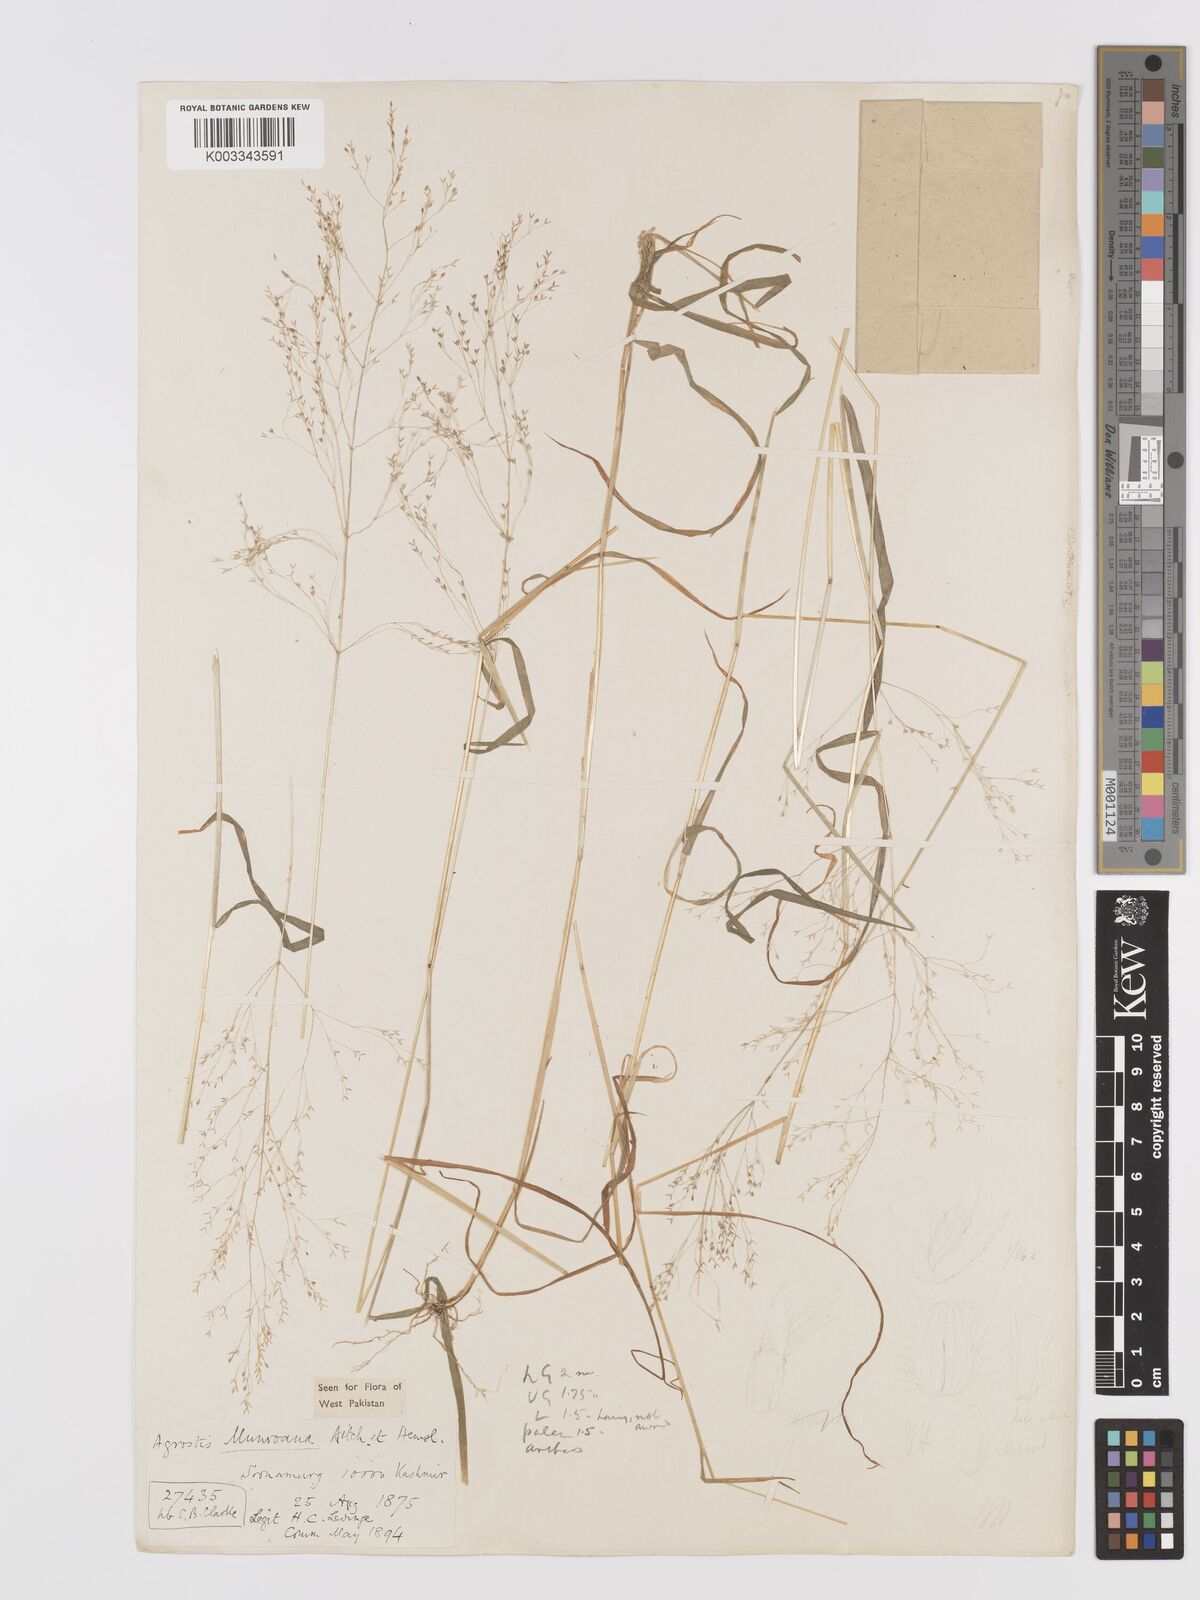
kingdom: Plantae
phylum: Tracheophyta
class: Liliopsida
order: Poales
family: Poaceae
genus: Agrostis
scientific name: Agrostis munroana
